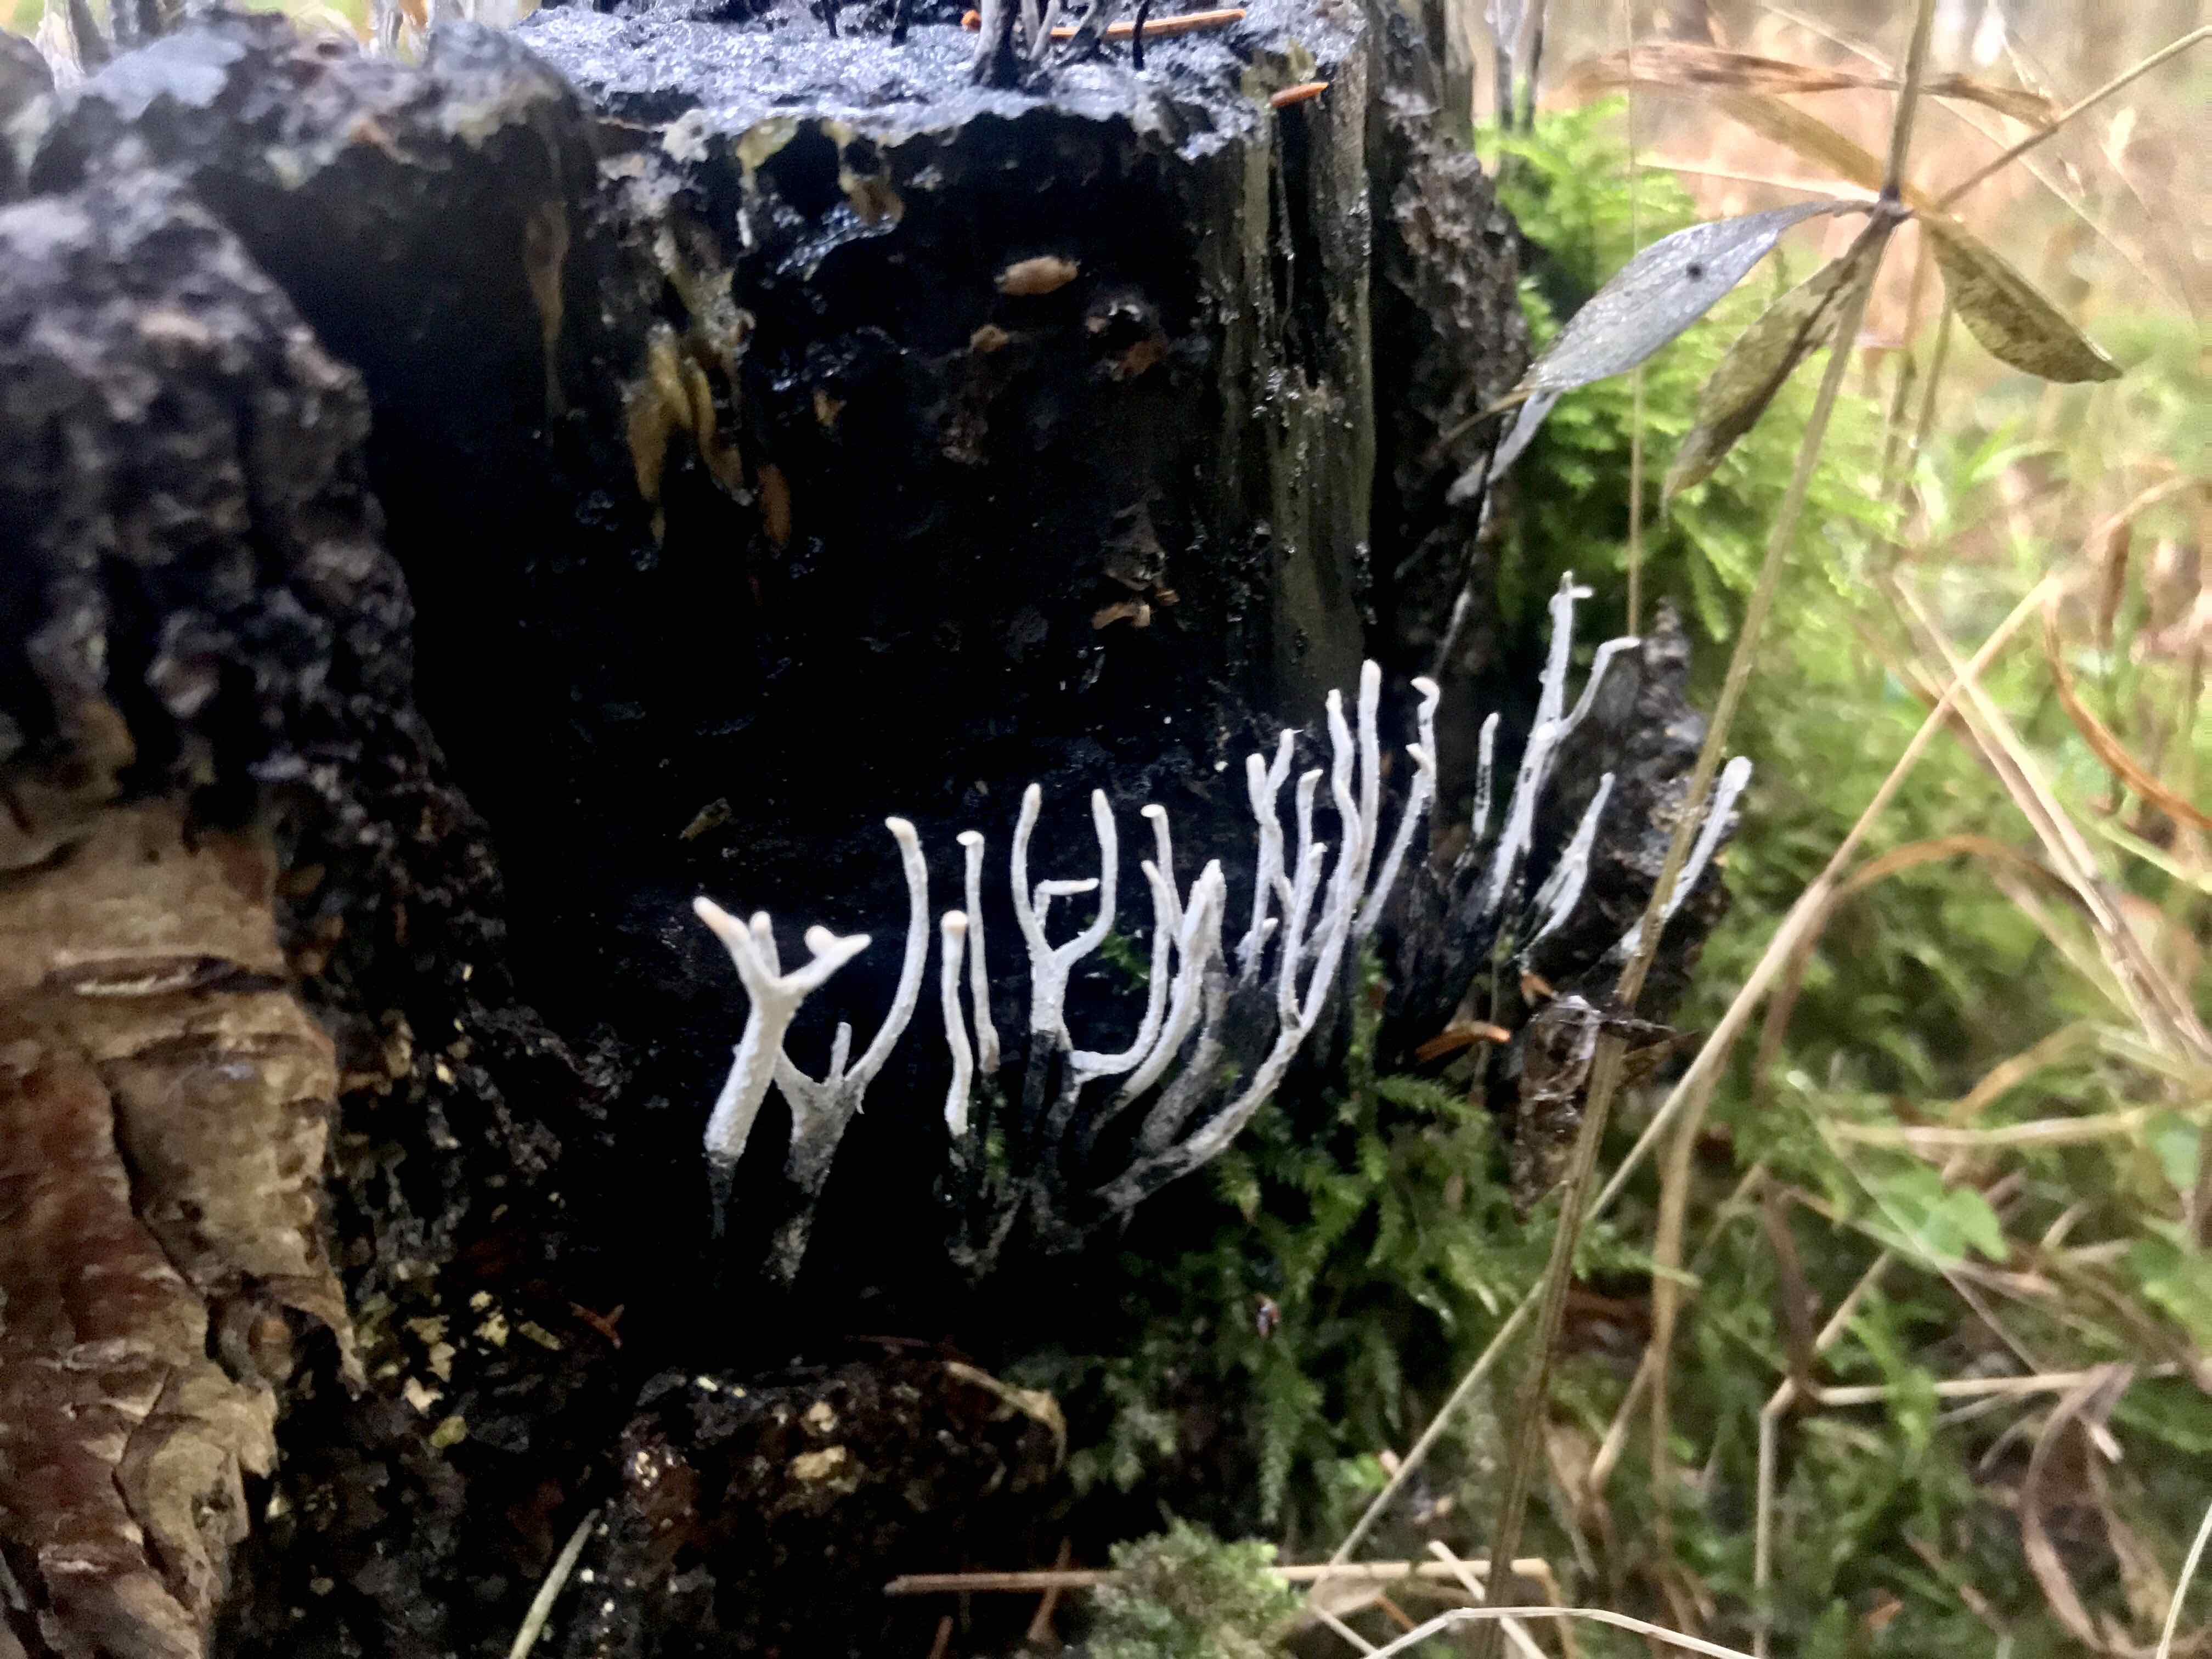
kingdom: Fungi
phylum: Ascomycota
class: Sordariomycetes
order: Xylariales
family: Xylariaceae
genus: Xylaria
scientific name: Xylaria hypoxylon
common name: grenet stødsvamp
